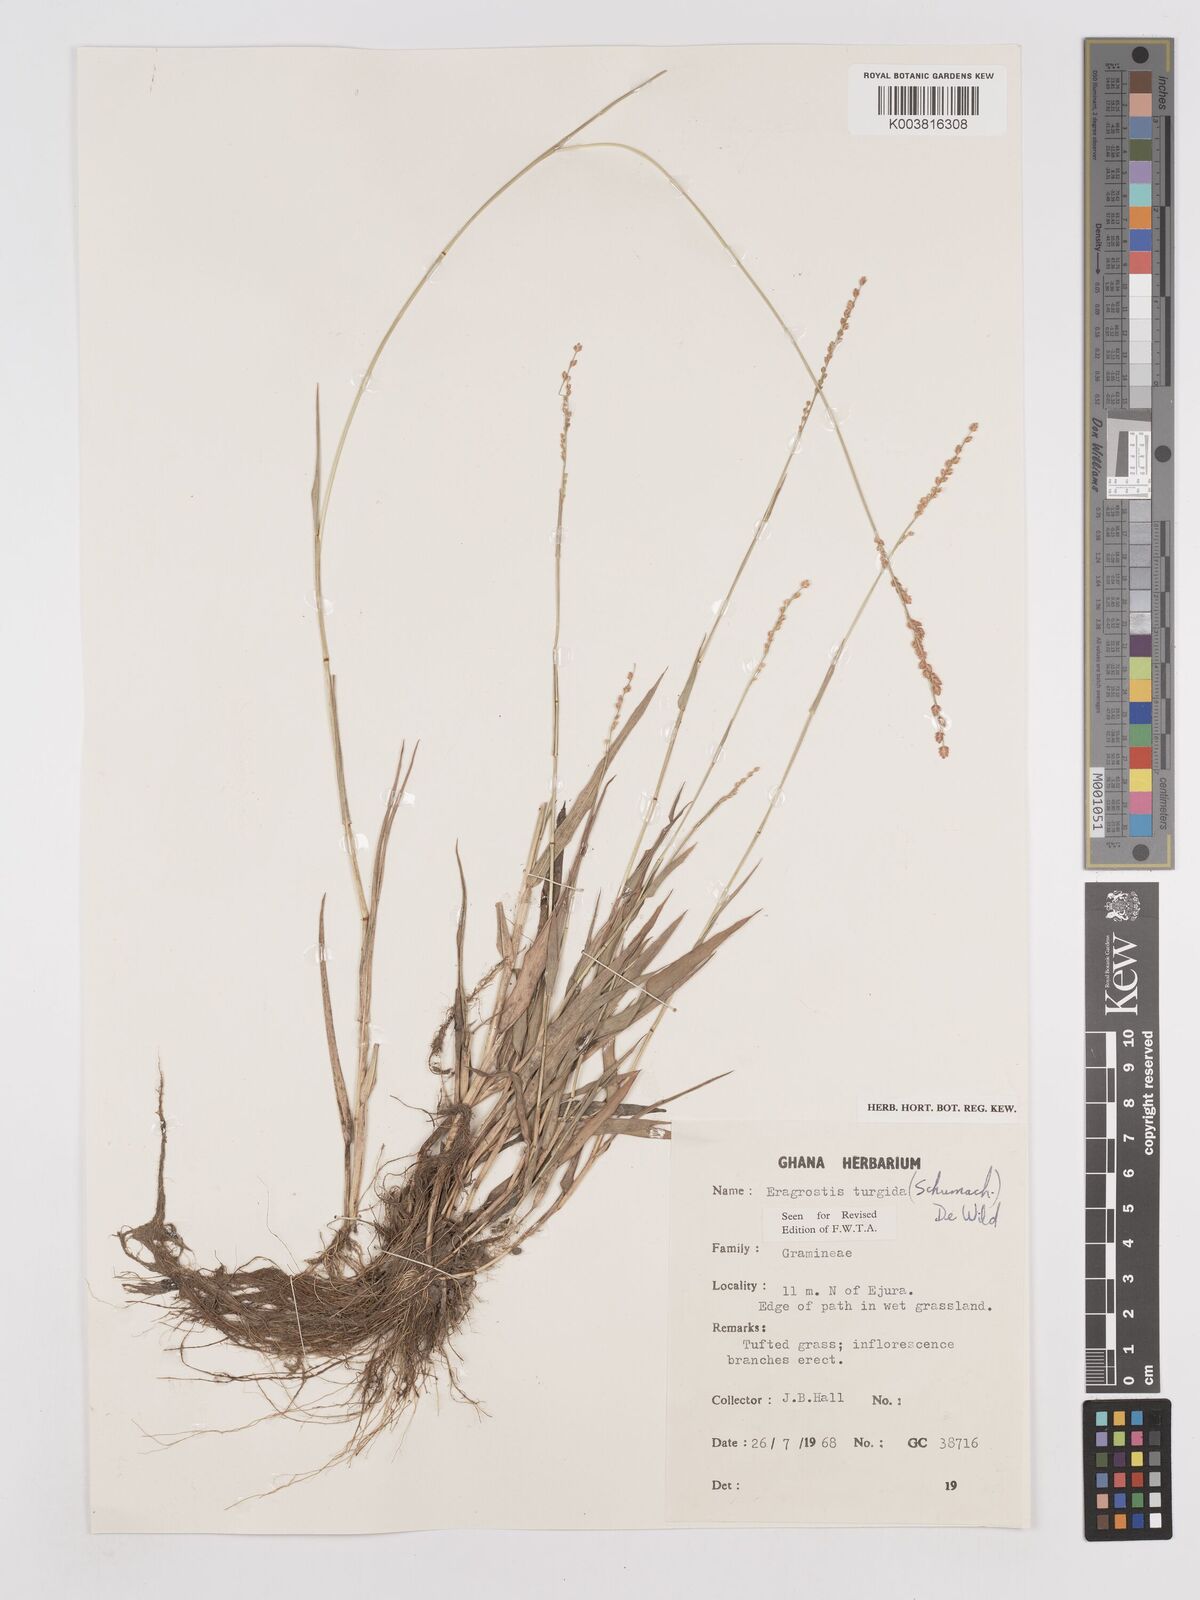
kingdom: Plantae
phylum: Tracheophyta
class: Liliopsida
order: Poales
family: Poaceae
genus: Eragrostis
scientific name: Eragrostis turgida
